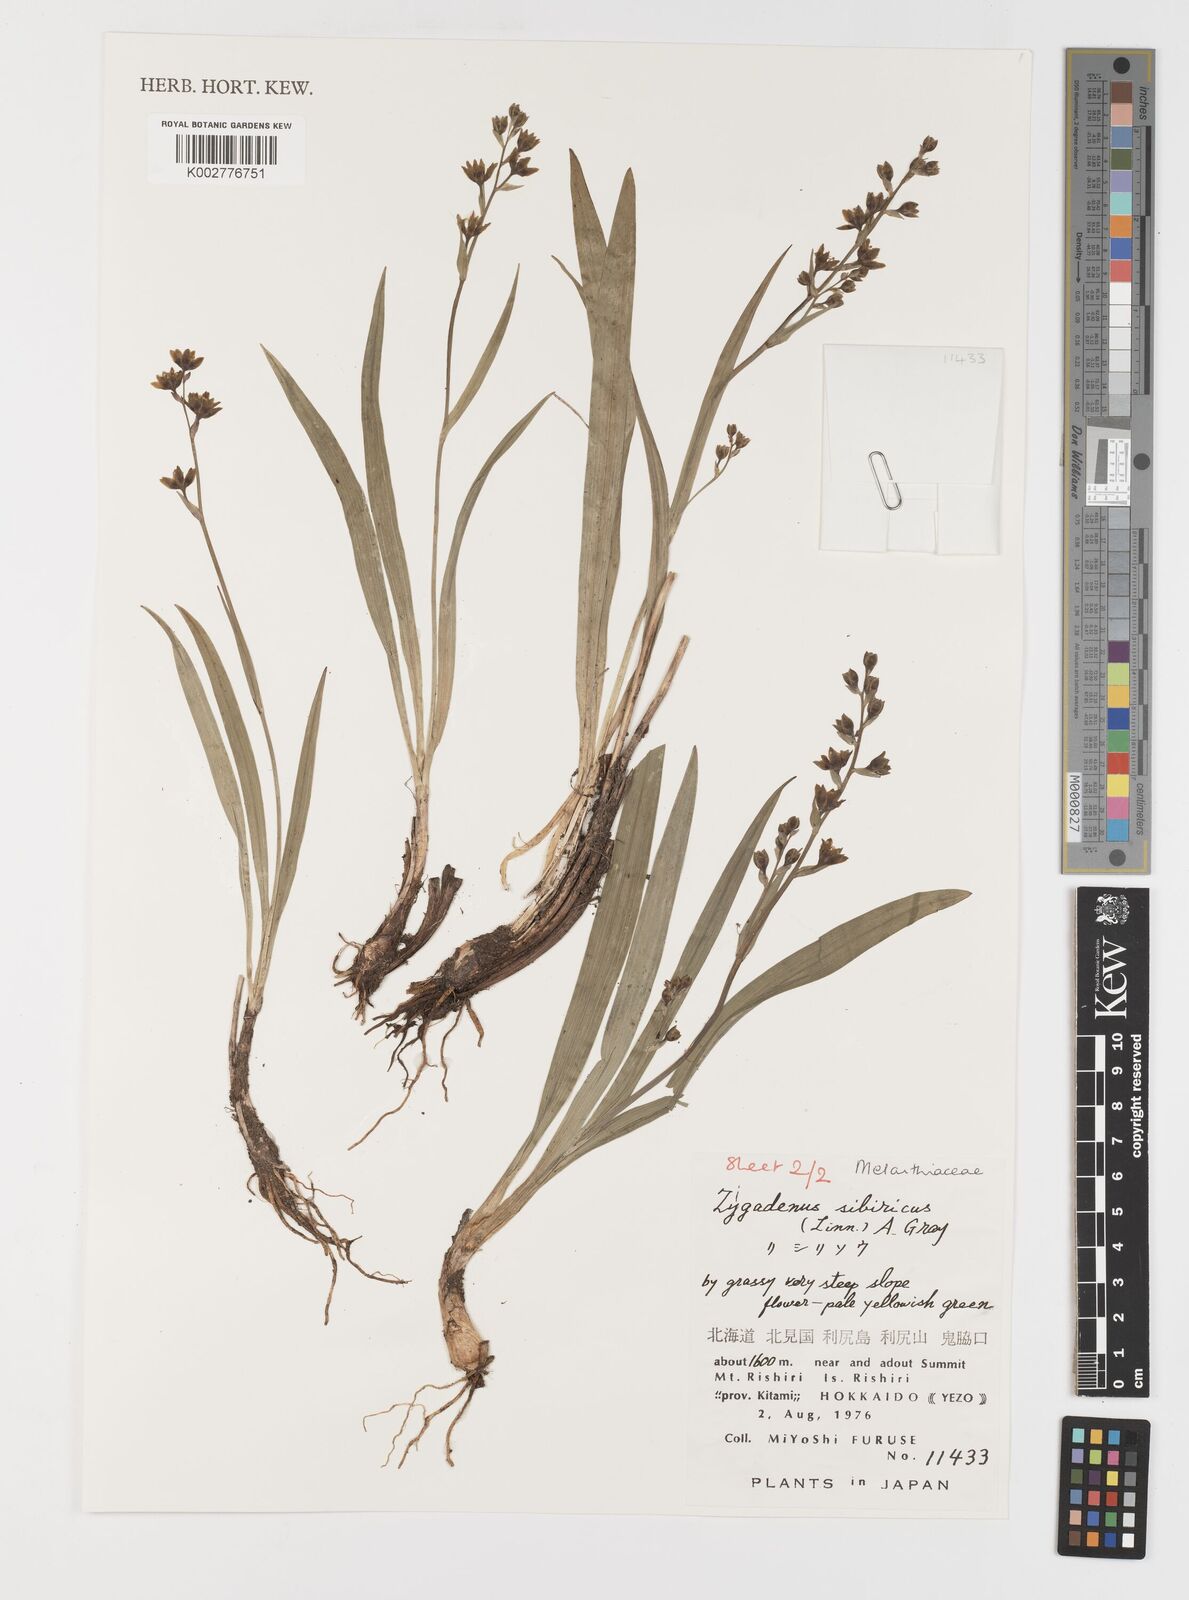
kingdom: Plantae
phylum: Tracheophyta
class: Liliopsida
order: Liliales
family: Melanthiaceae
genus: Anticlea
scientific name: Anticlea sibirica
